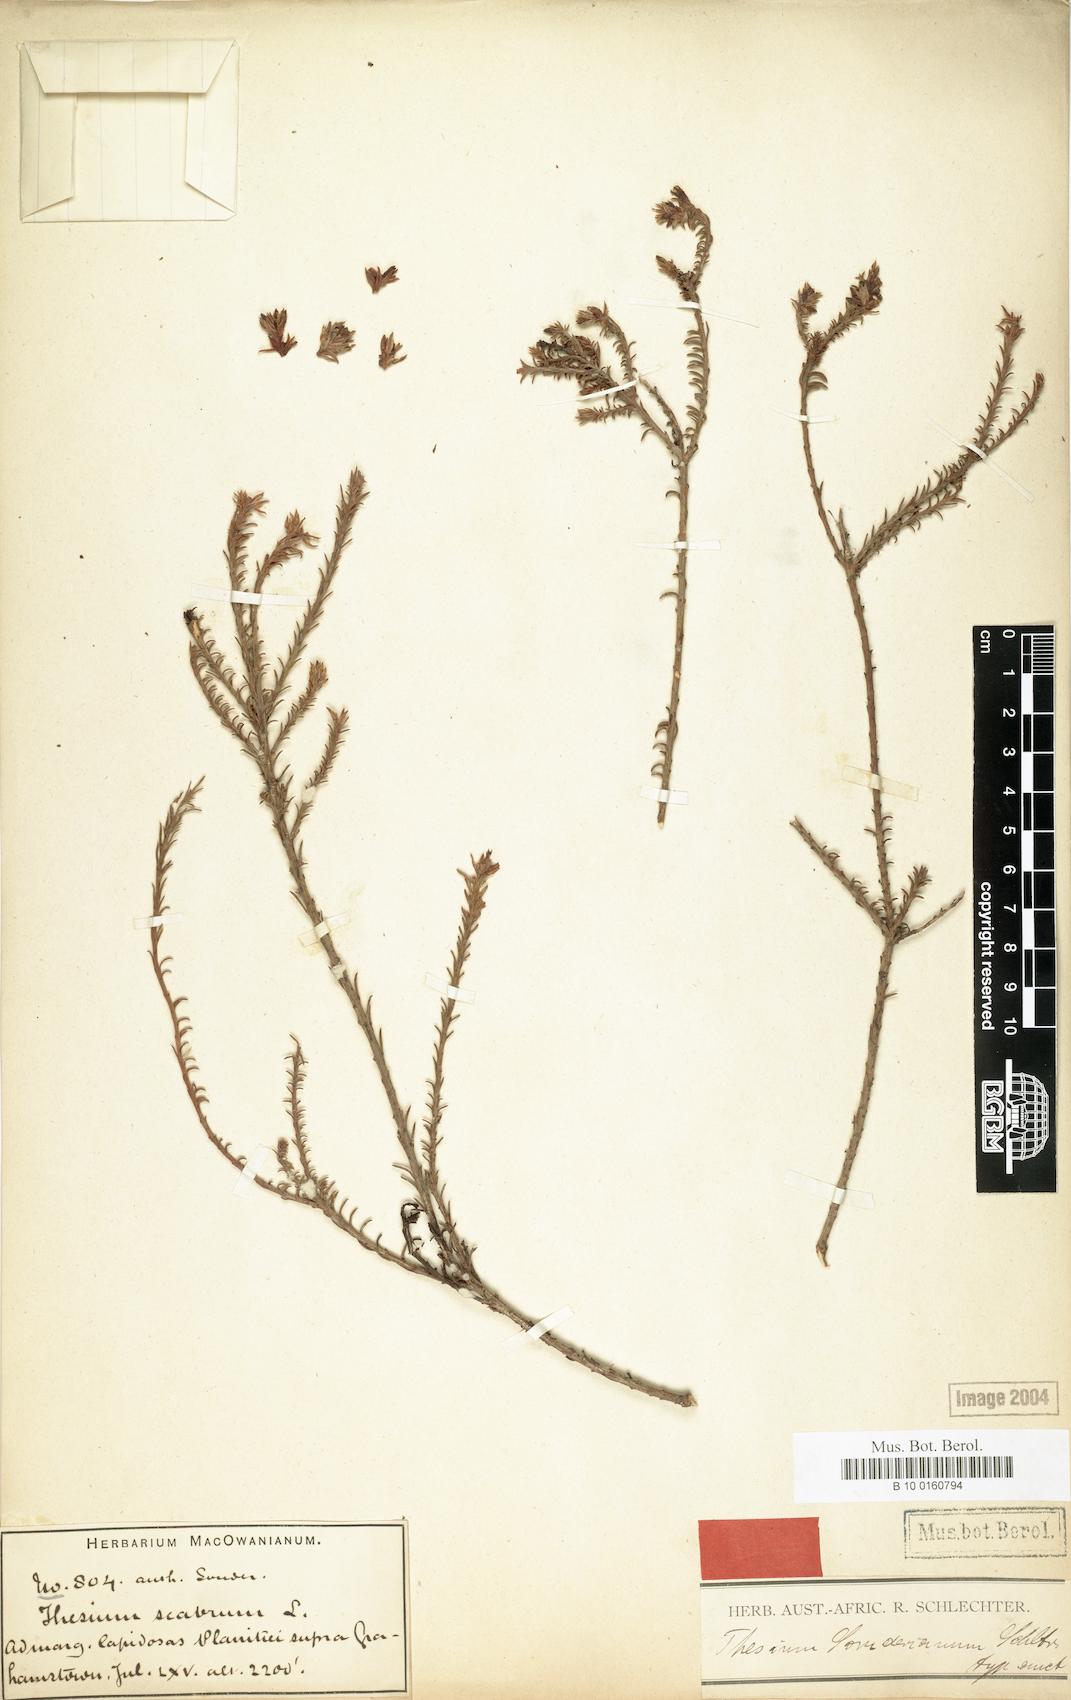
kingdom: Plantae
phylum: Tracheophyta
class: Magnoliopsida
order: Santalales
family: Thesiaceae
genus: Thesium
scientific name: Thesium sonderianum
